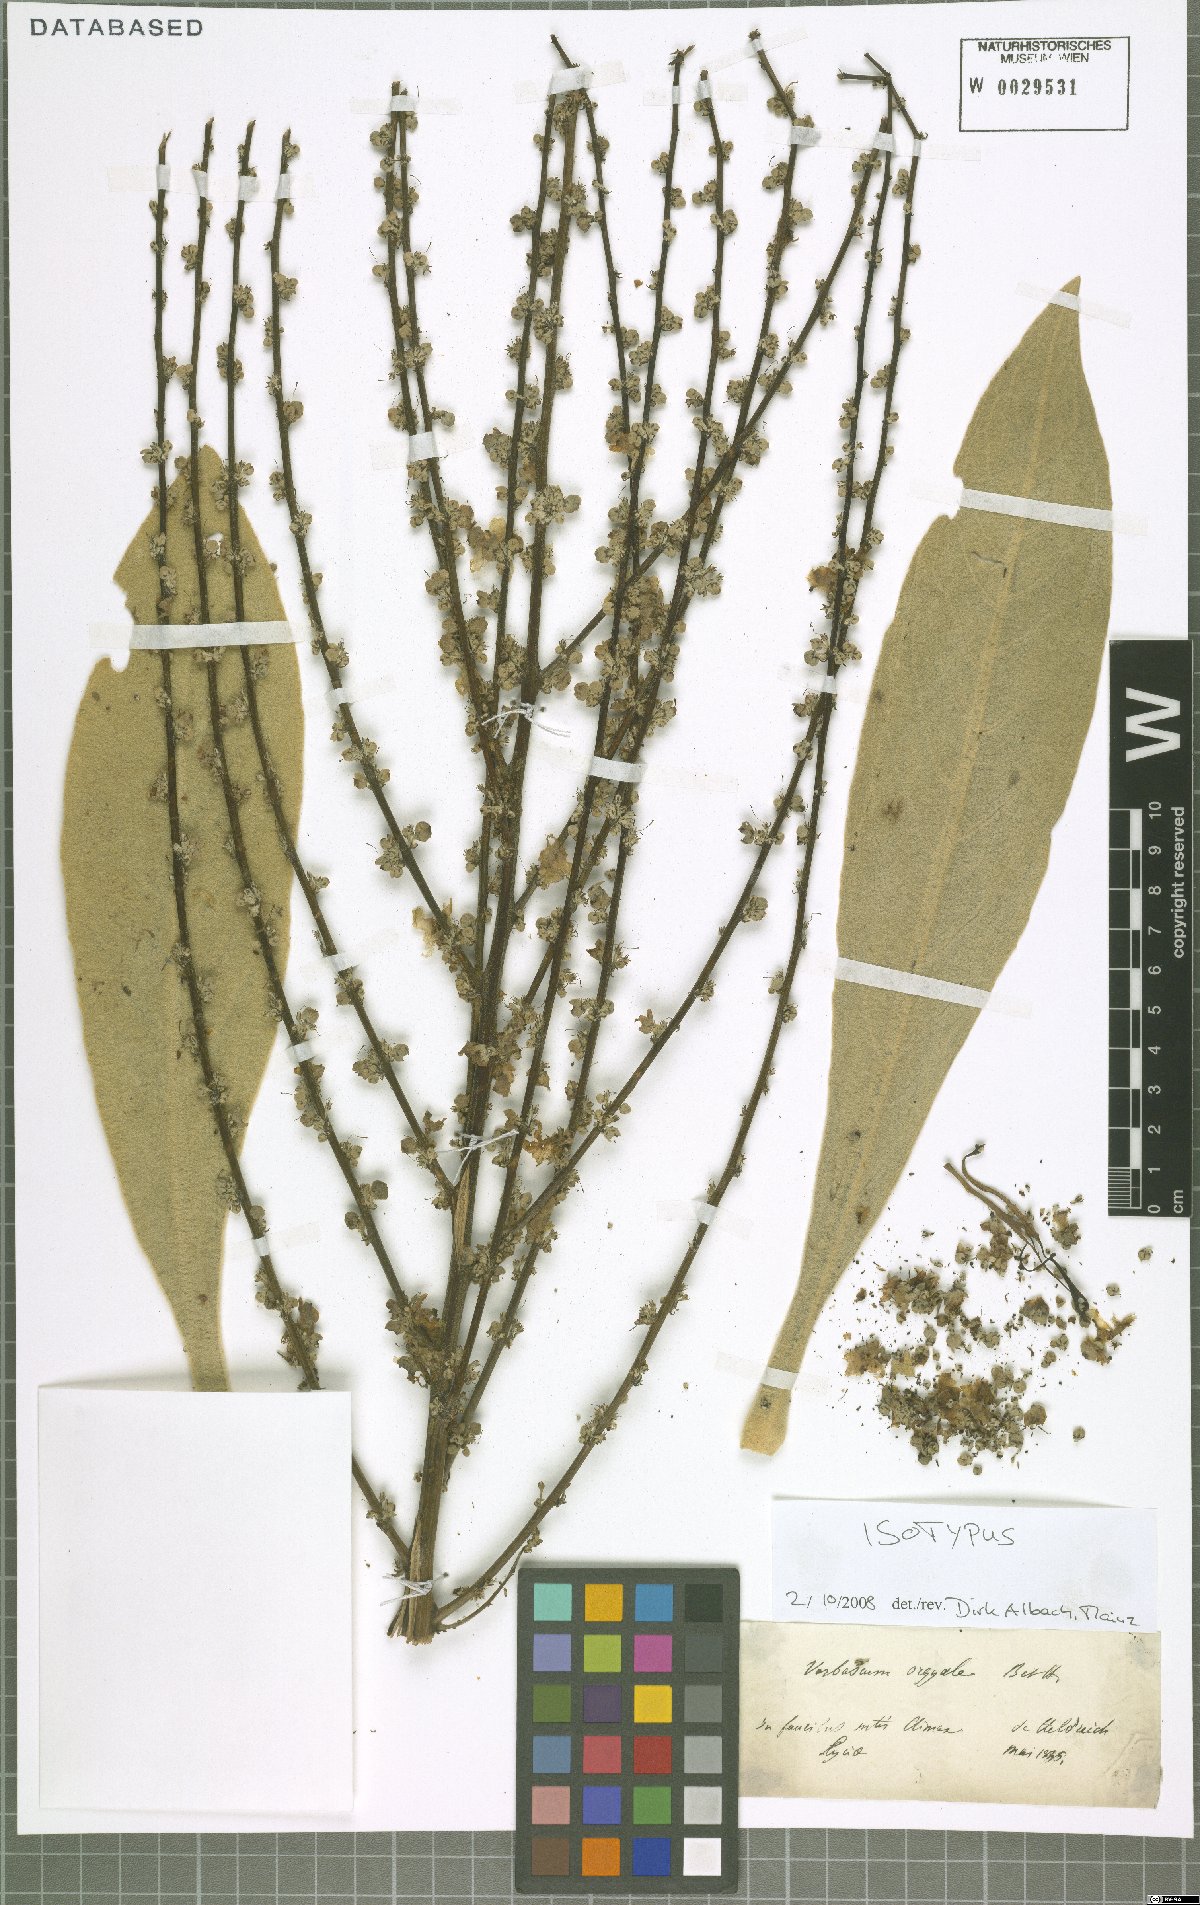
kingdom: Plantae
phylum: Tracheophyta
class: Magnoliopsida
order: Lamiales
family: Scrophulariaceae
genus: Verbascum
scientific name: Verbascum orgyale
